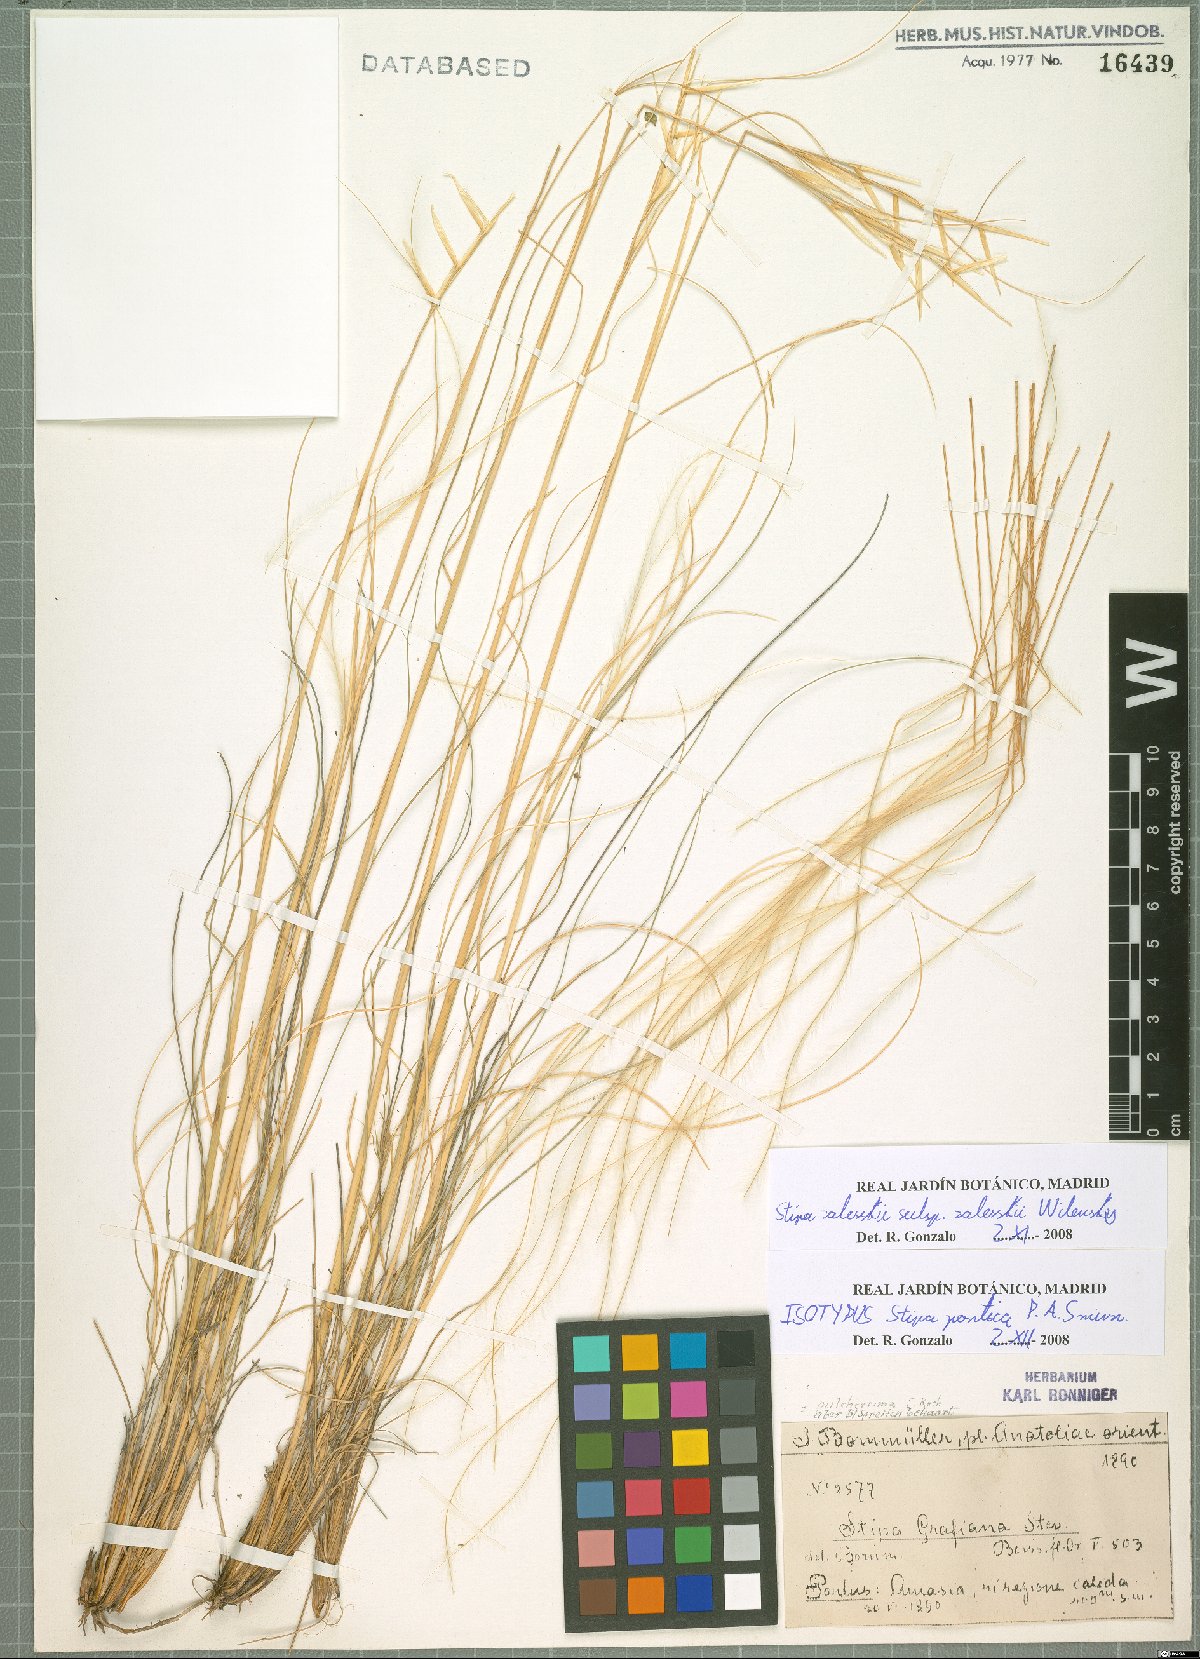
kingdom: Plantae
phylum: Tracheophyta
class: Liliopsida
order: Poales
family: Poaceae
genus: Stipa
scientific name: Stipa zalesskii
